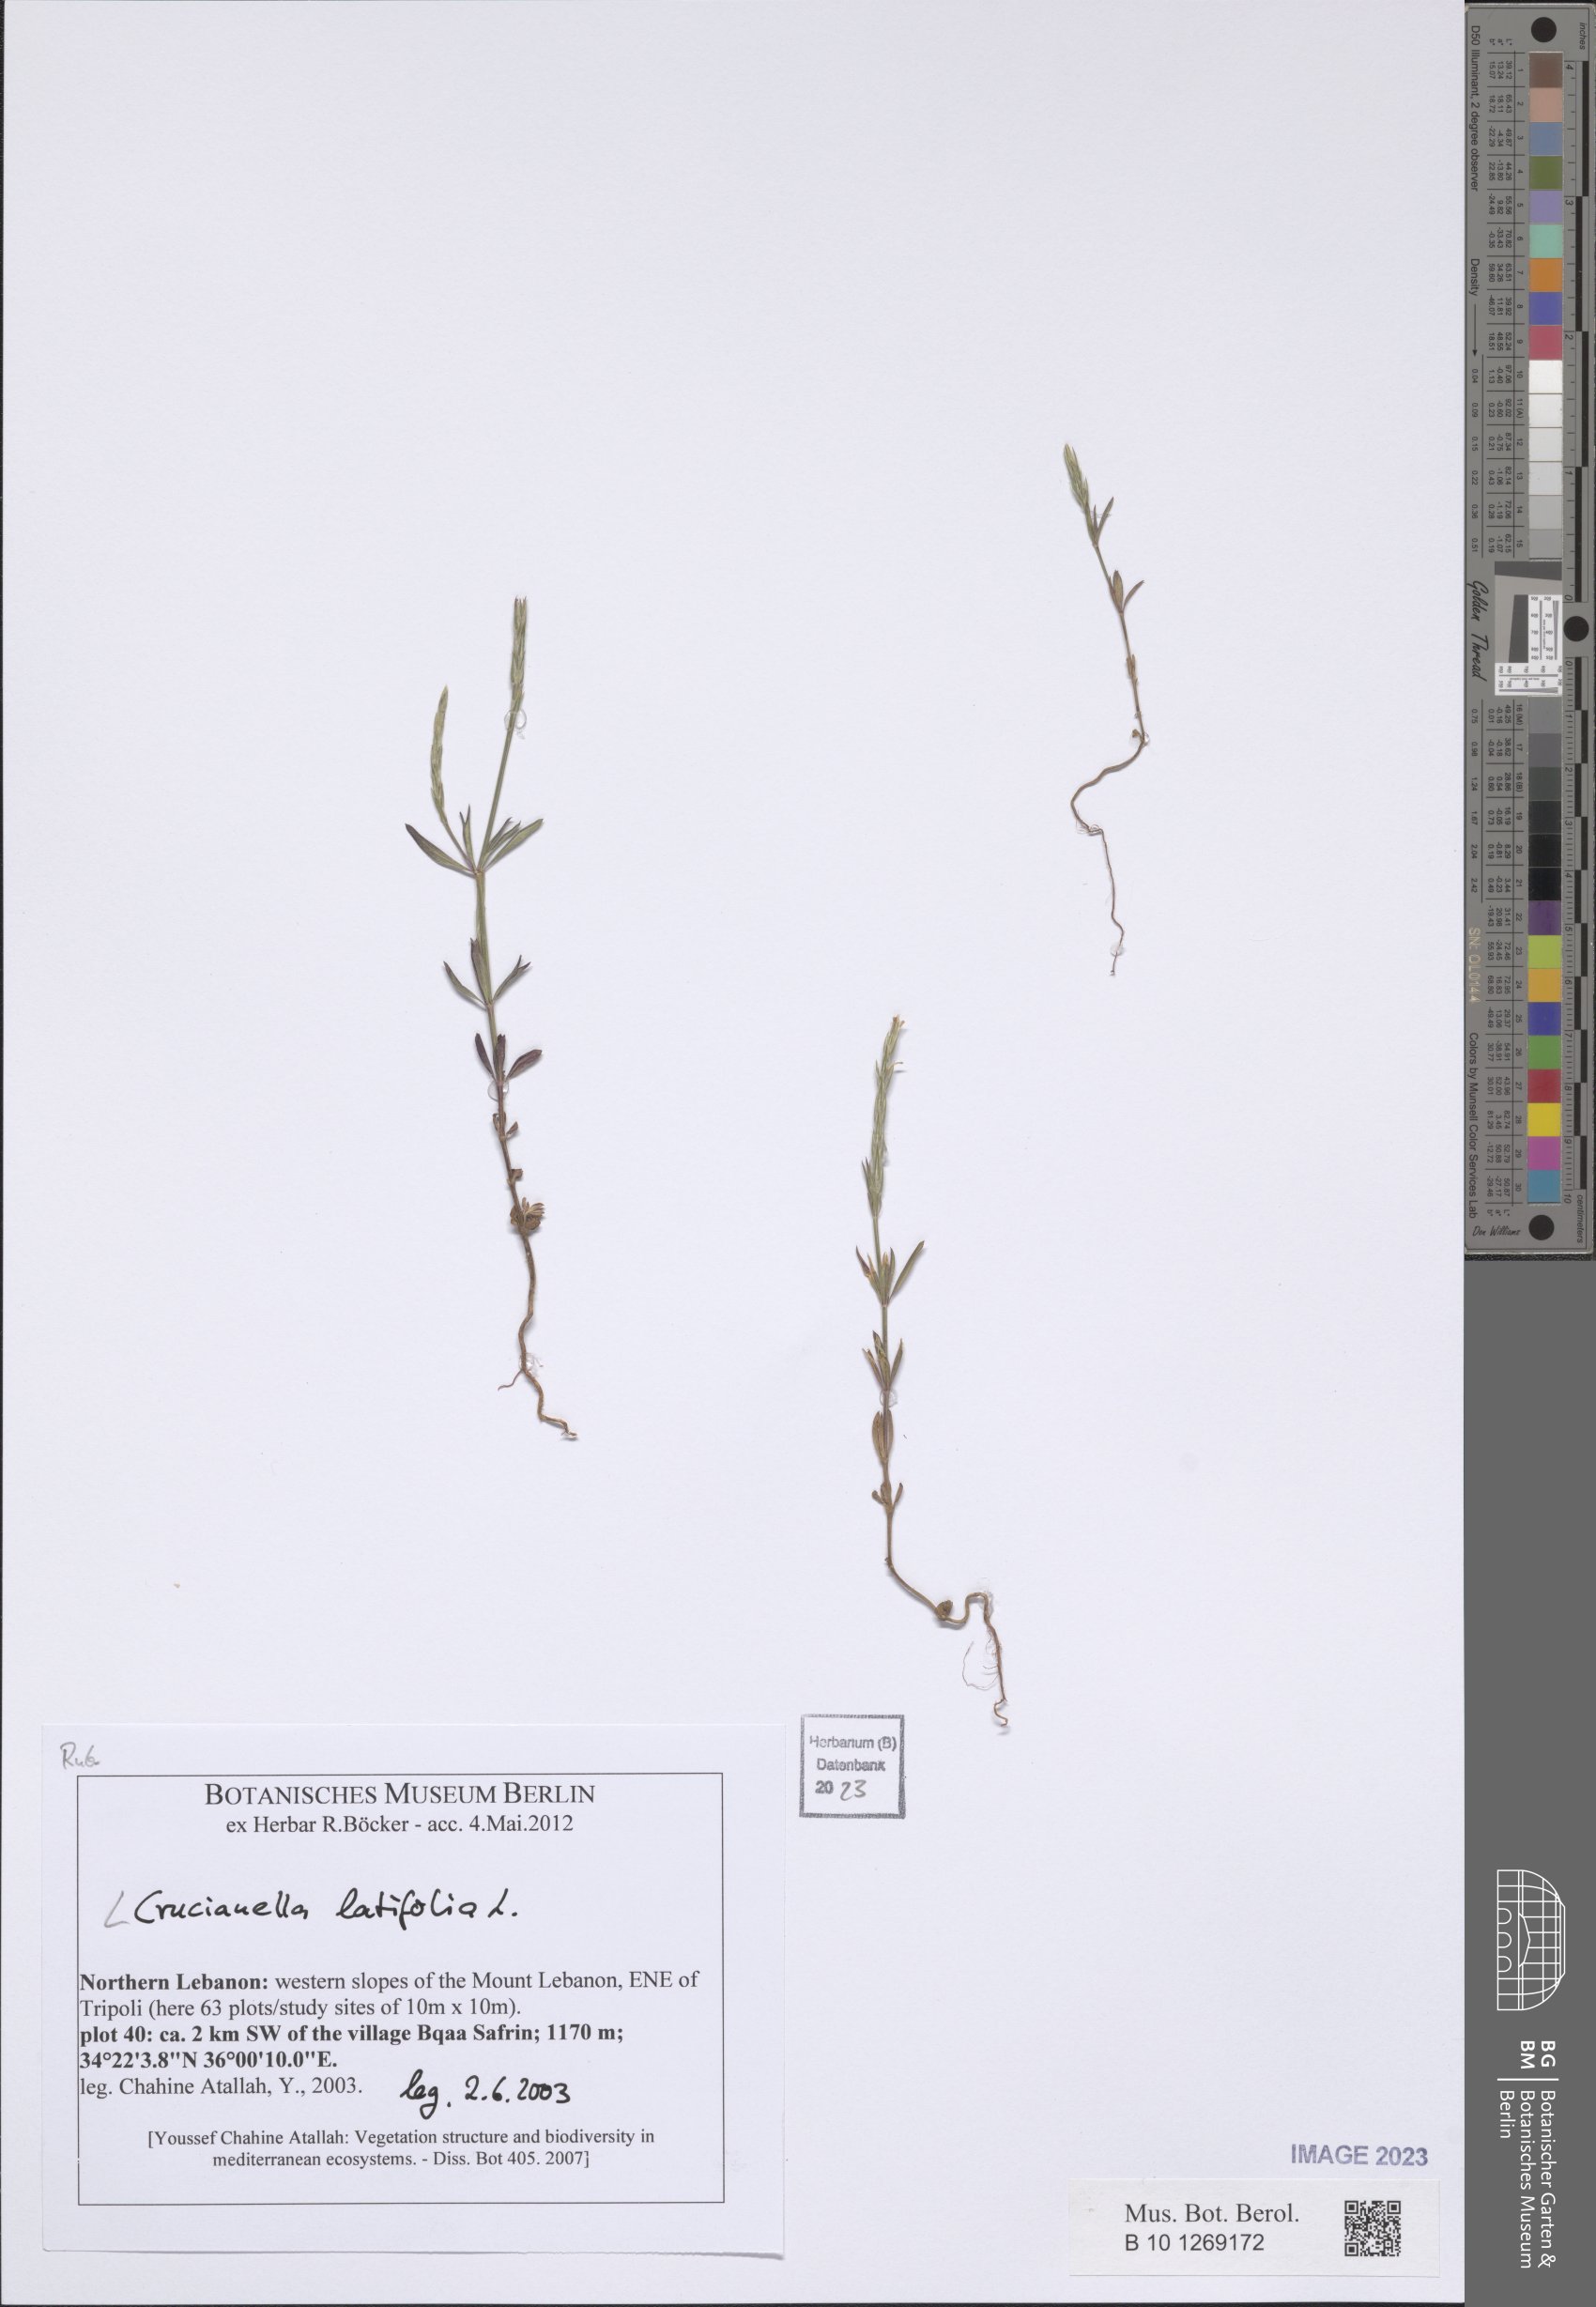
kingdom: Plantae
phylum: Tracheophyta
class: Magnoliopsida
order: Gentianales
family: Rubiaceae
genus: Crucianella
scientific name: Crucianella latifolia
